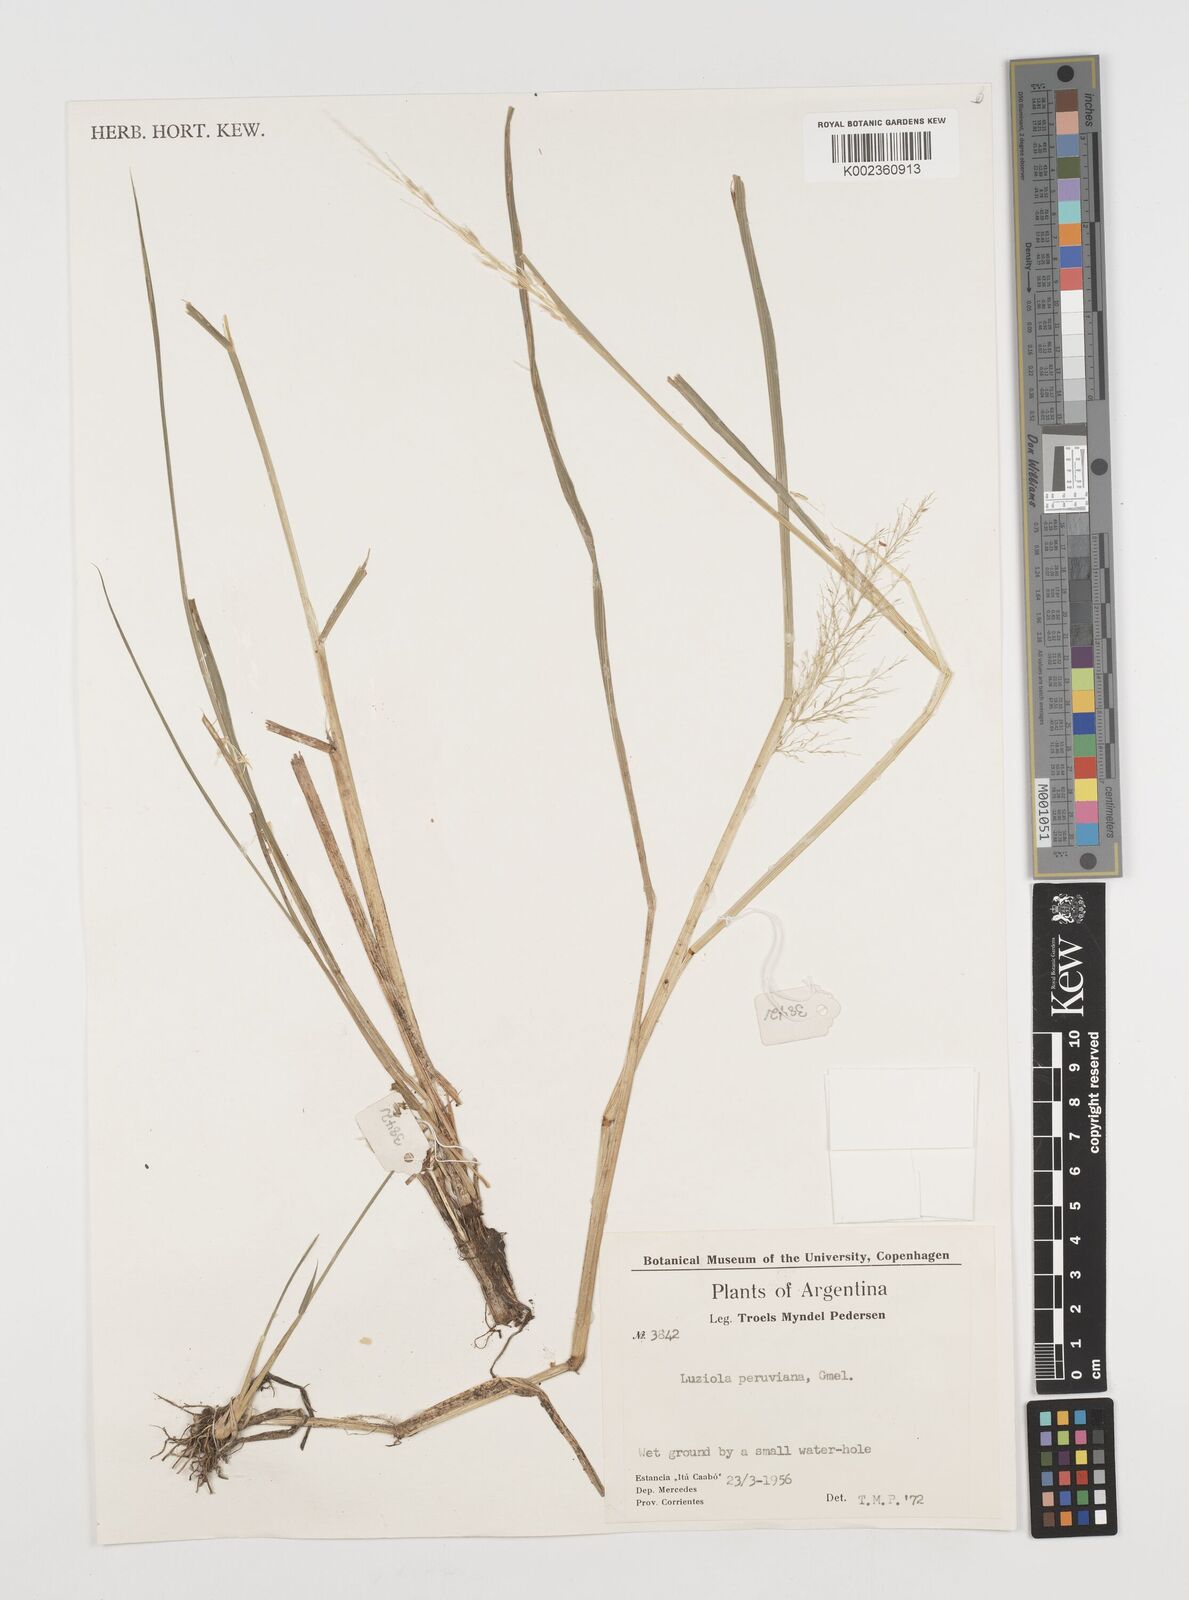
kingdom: Plantae
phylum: Tracheophyta
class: Liliopsida
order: Poales
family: Poaceae
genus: Luziola
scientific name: Luziola peruviana
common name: Peruvian watergrass
